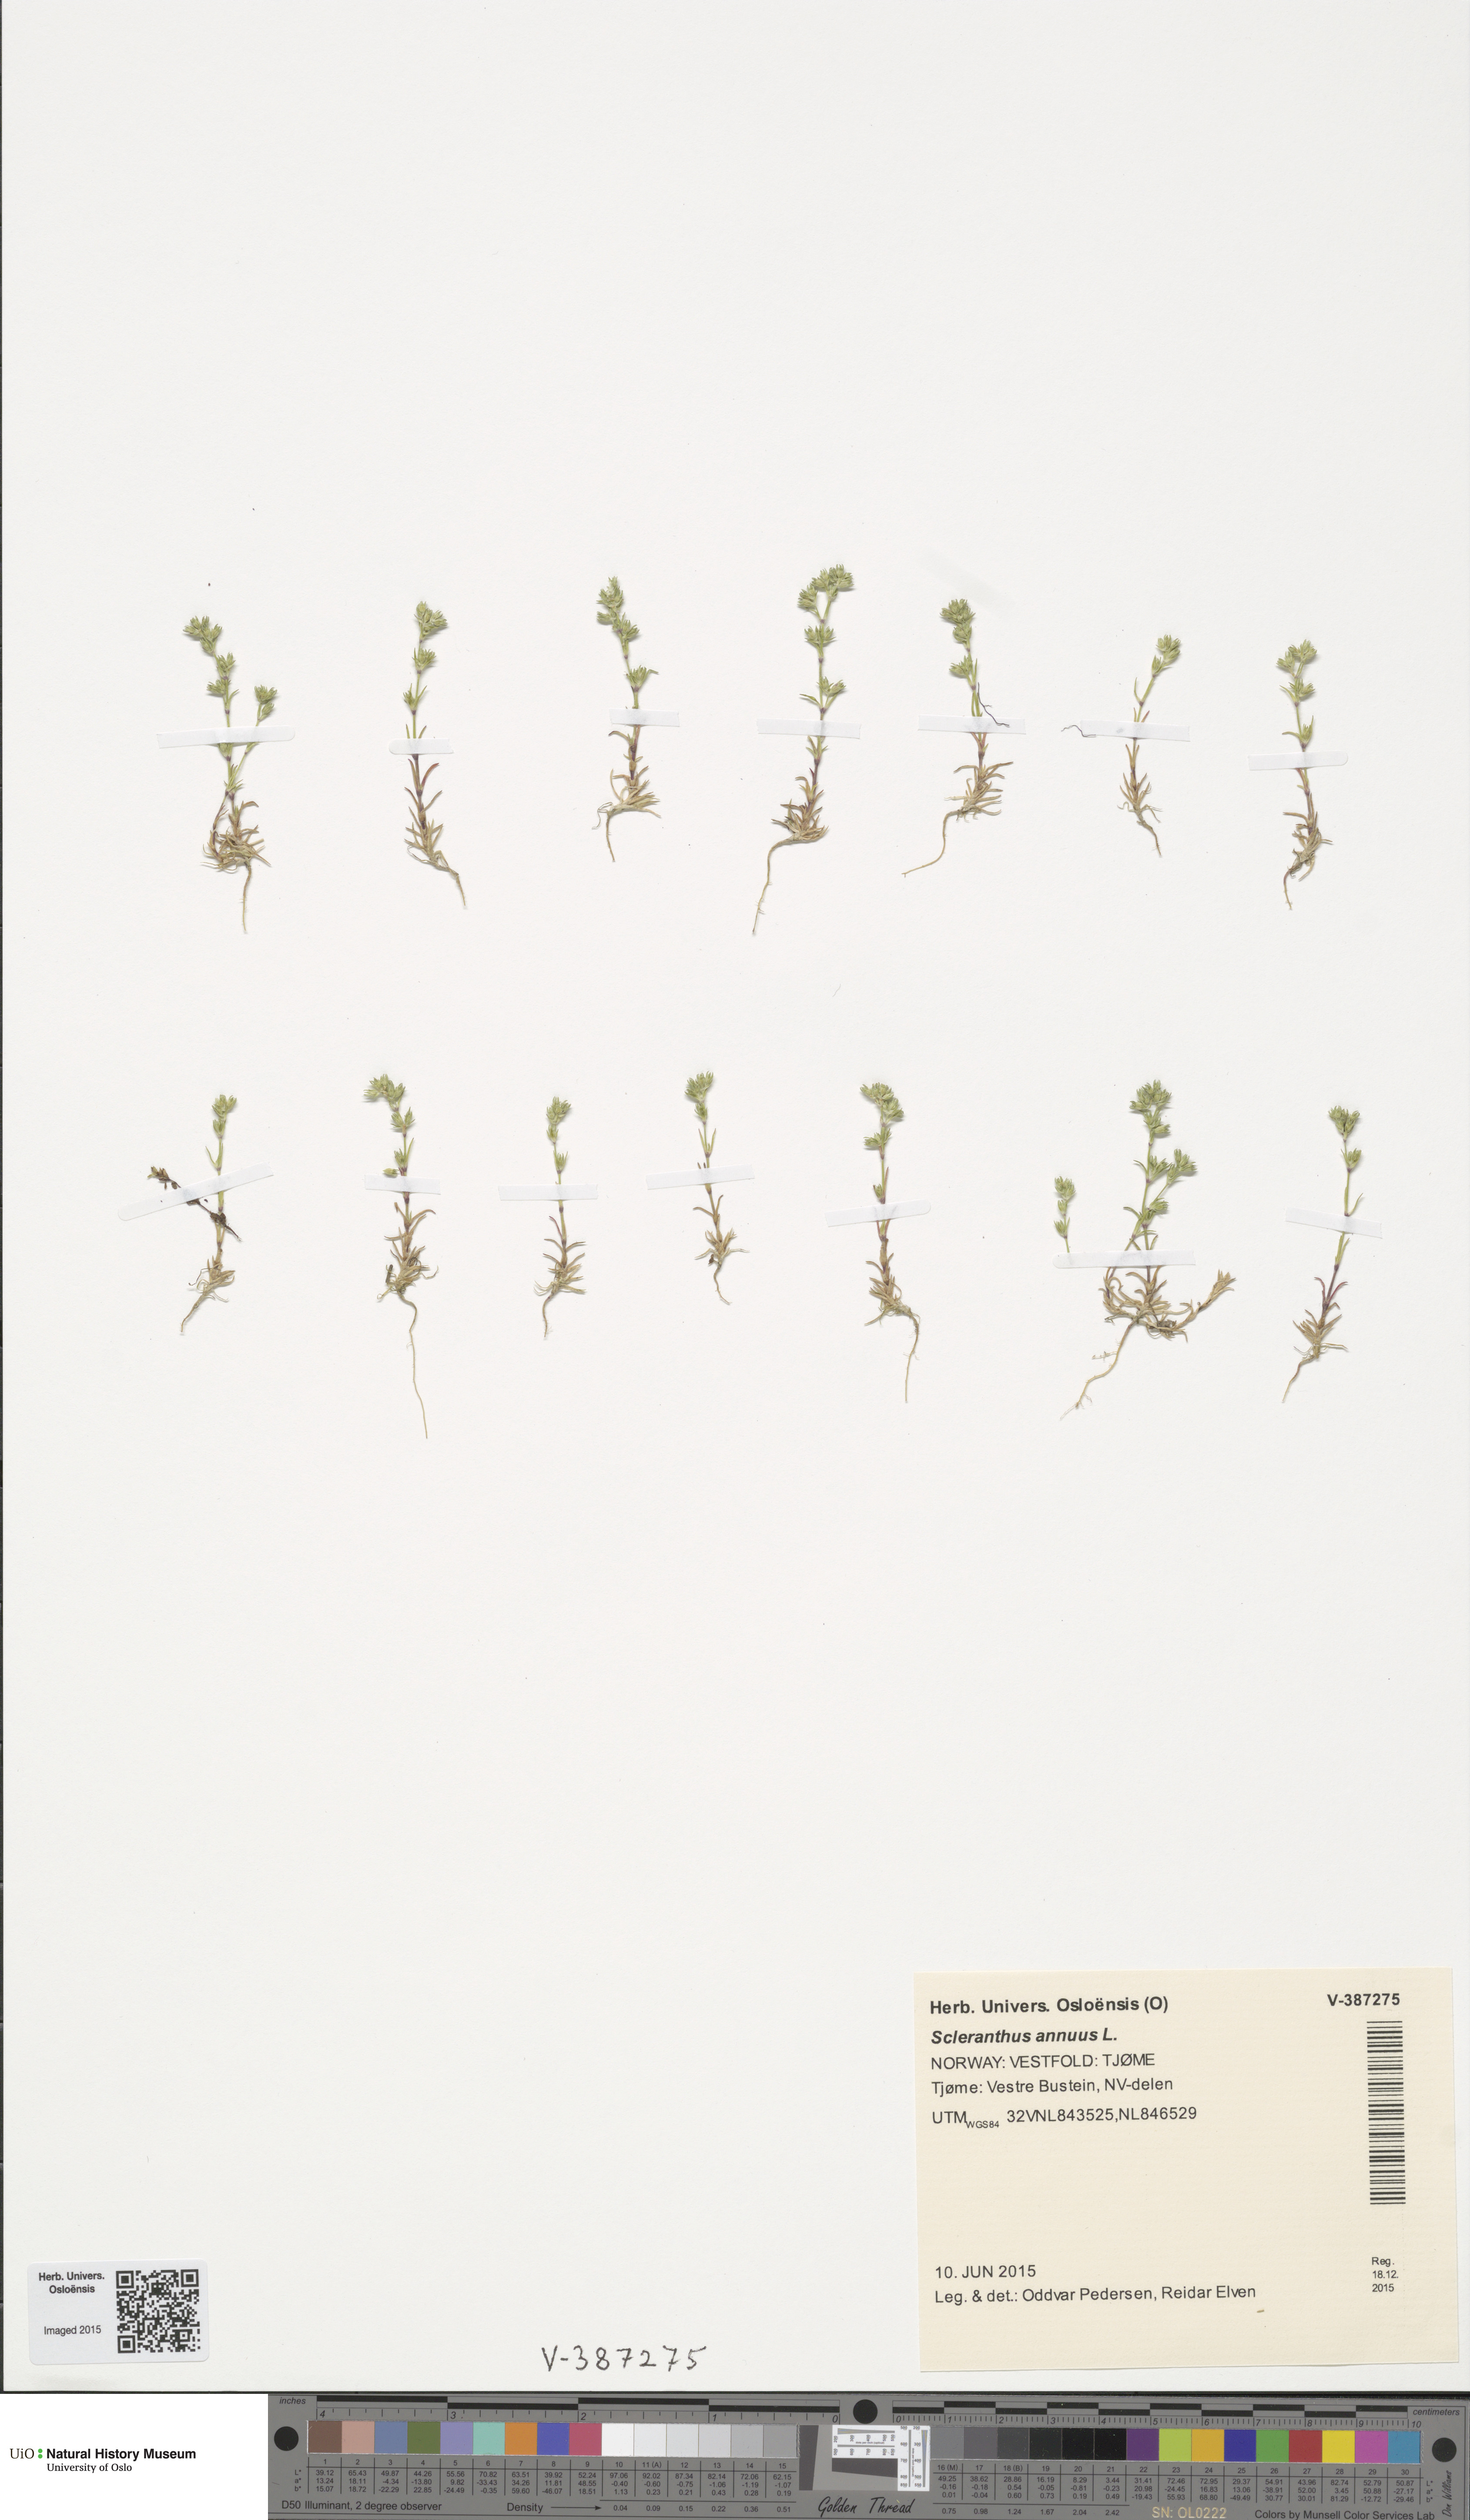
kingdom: Plantae
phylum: Tracheophyta
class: Magnoliopsida
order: Caryophyllales
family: Caryophyllaceae
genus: Scleranthus
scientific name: Scleranthus annuus
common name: Annual knawel
